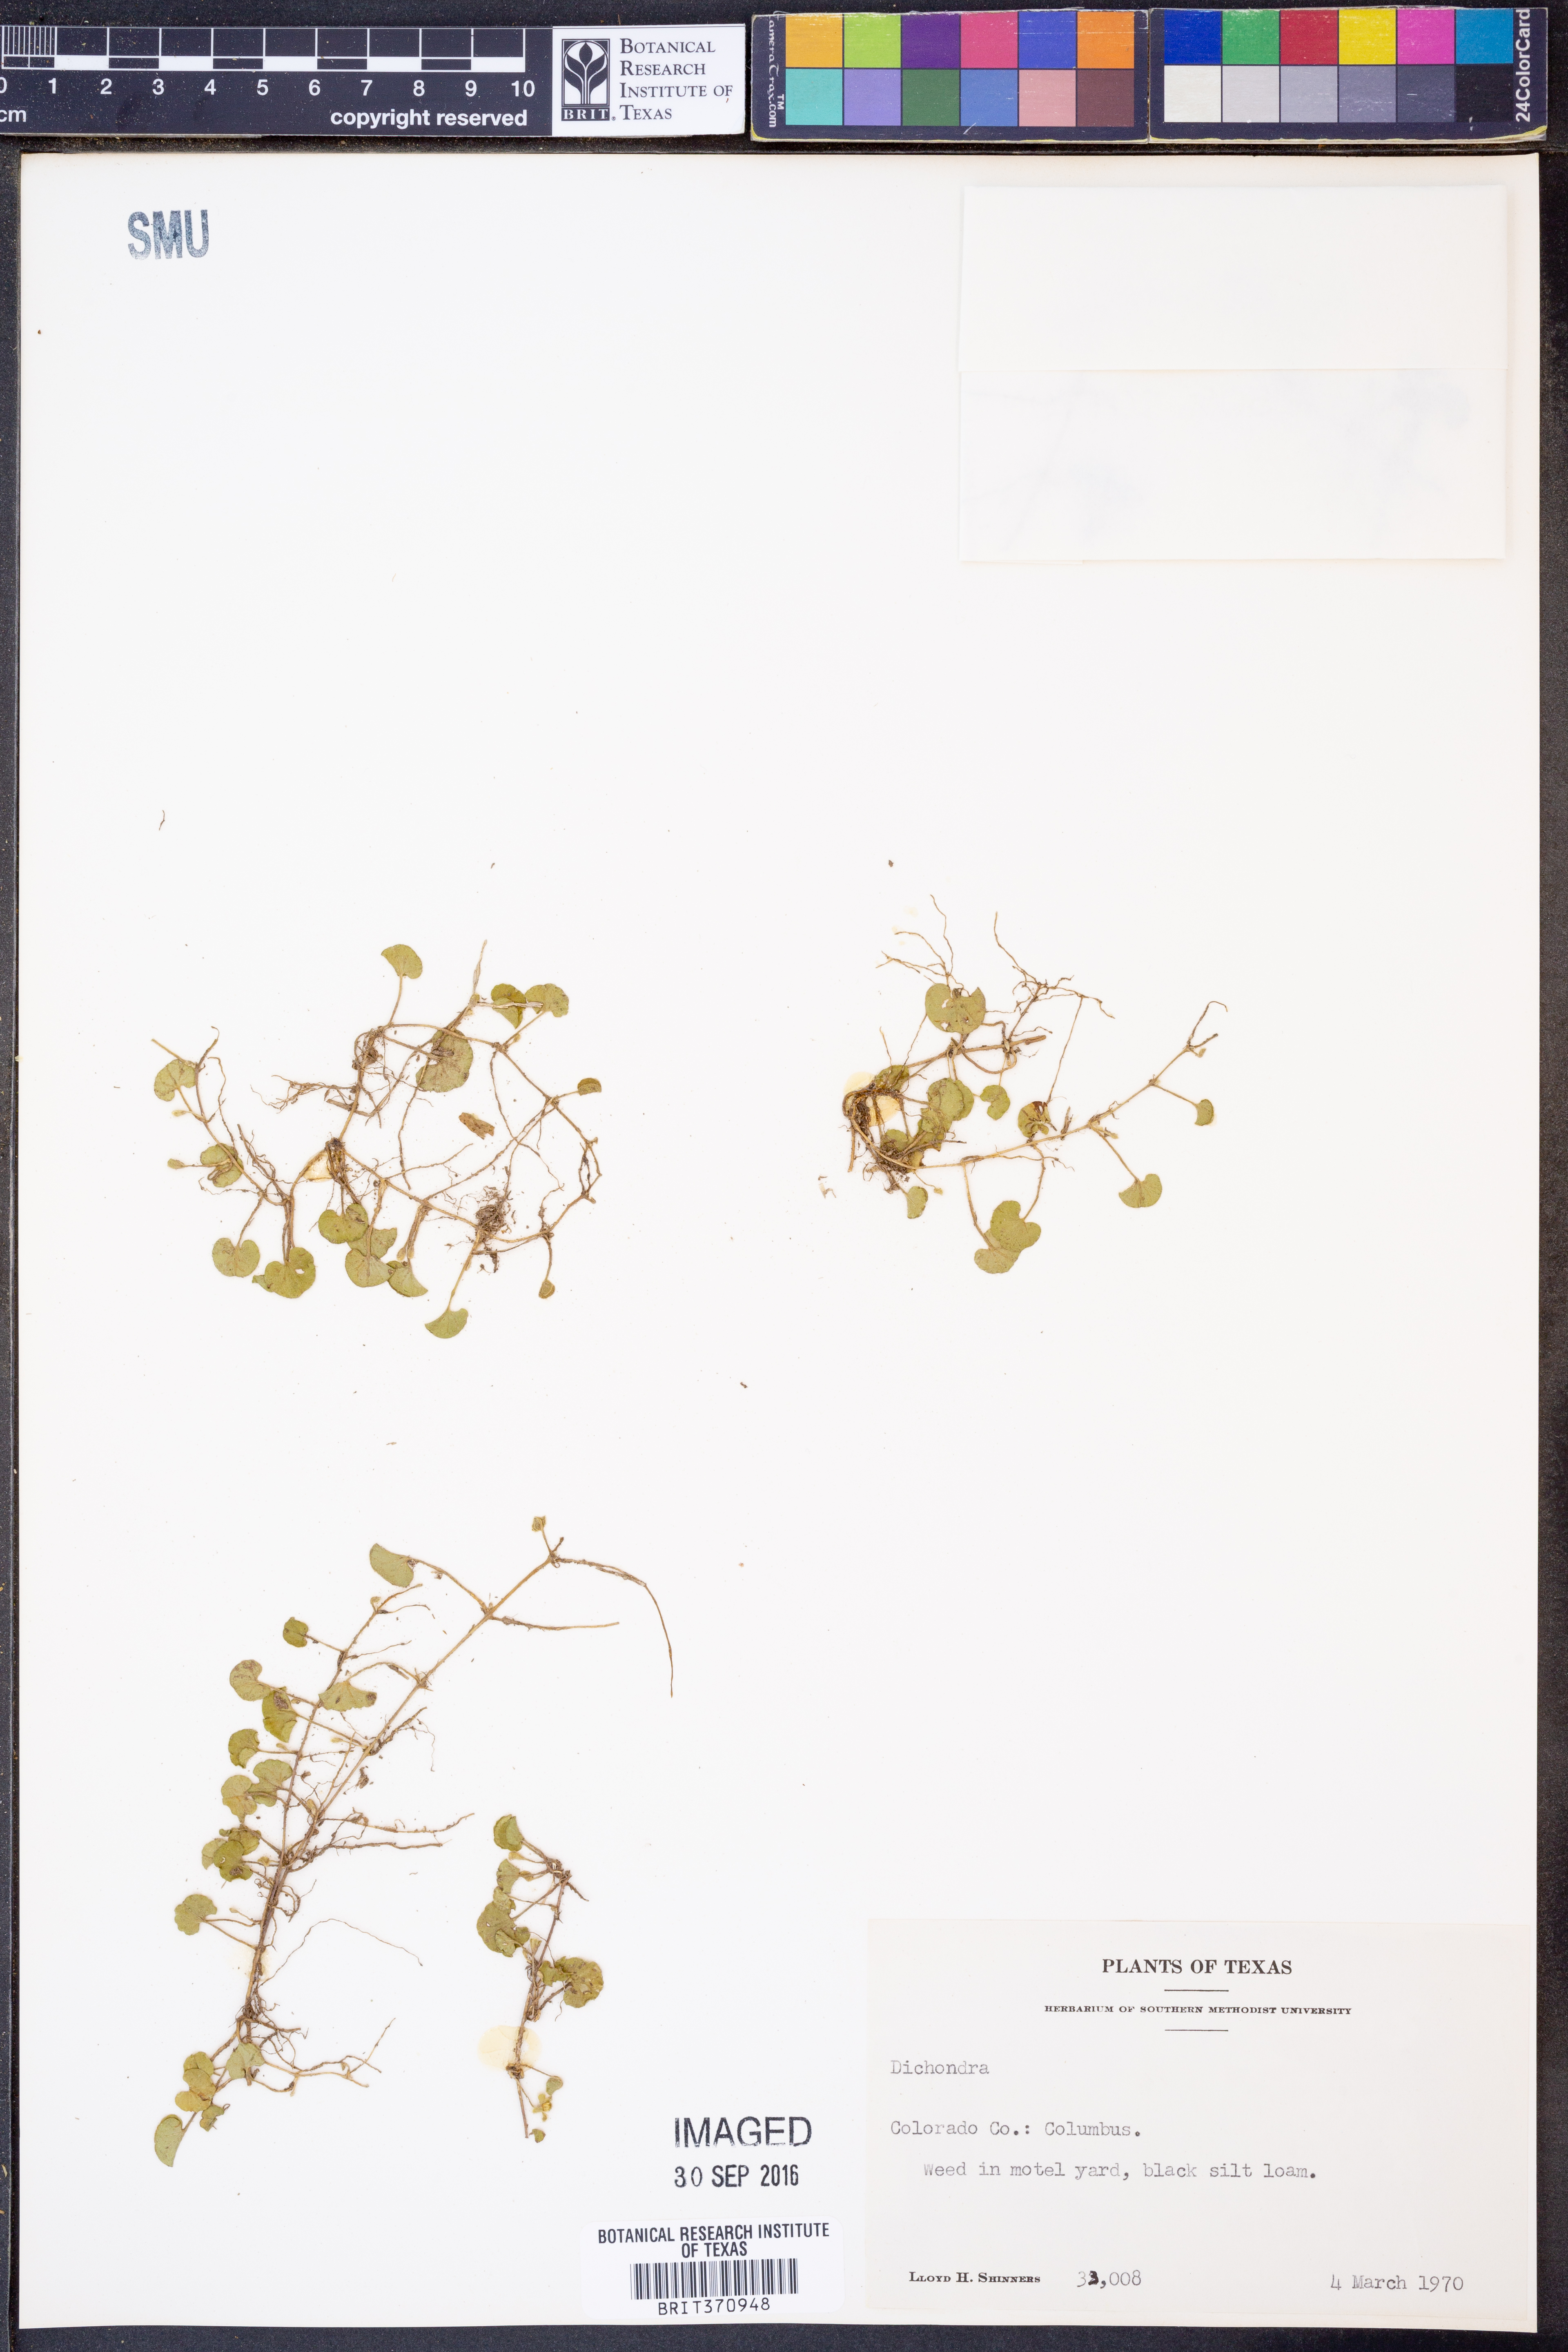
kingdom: Plantae
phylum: Tracheophyta
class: Magnoliopsida
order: Solanales
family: Convolvulaceae
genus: Dichondra
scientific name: Dichondra
